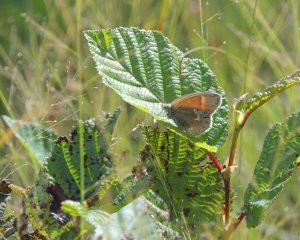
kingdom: Animalia
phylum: Arthropoda
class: Insecta
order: Lepidoptera
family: Nymphalidae
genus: Coenonympha
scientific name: Coenonympha tullia
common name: Large Heath
